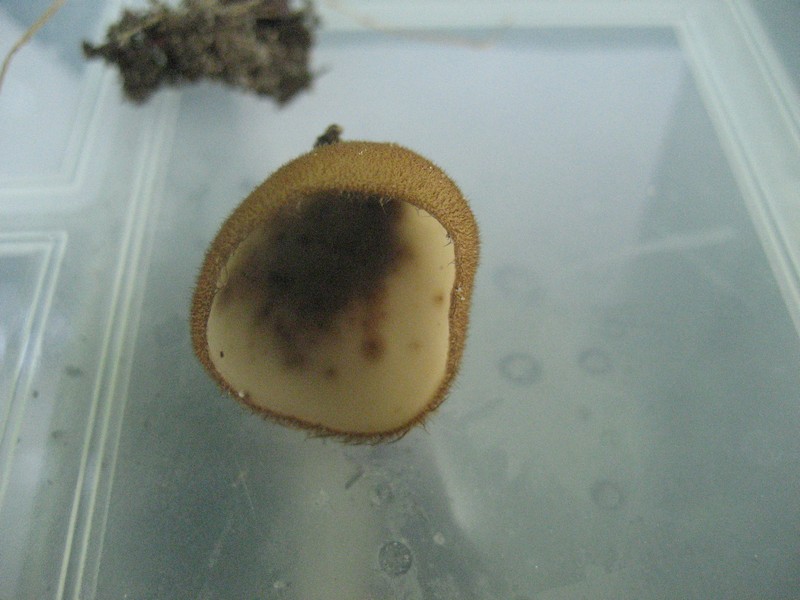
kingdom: Fungi
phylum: Ascomycota
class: Pezizomycetes
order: Pezizales
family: Pyronemataceae
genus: Humaria
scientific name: Humaria hemisphaerica
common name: halvkugleformet børstebæger
